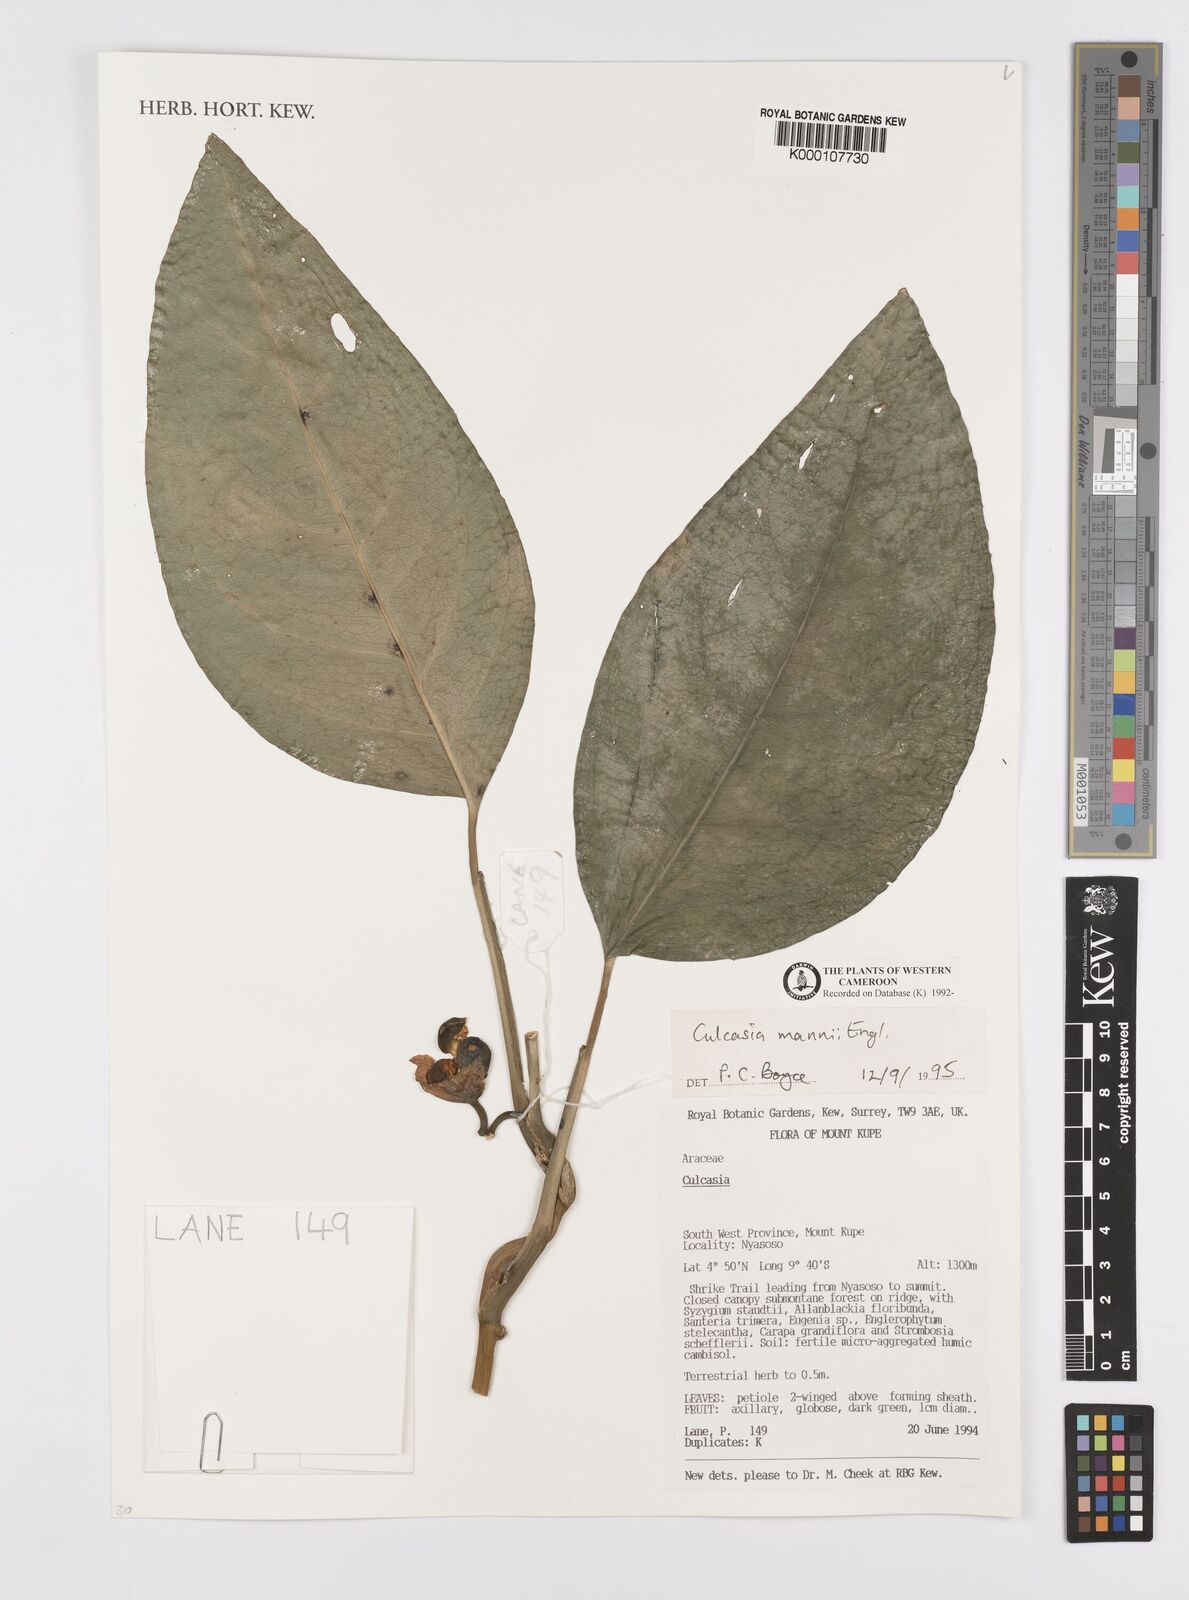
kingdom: Plantae
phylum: Tracheophyta
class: Liliopsida
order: Alismatales
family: Araceae
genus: Culcasia
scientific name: Culcasia mannii
